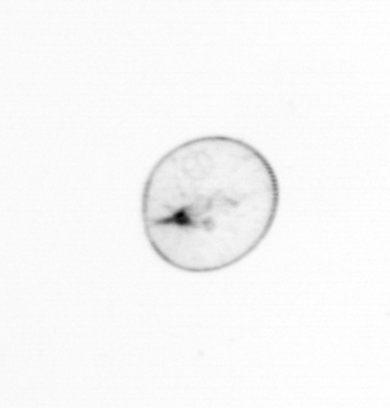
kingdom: Chromista
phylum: Myzozoa
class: Dinophyceae
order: Noctilucales
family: Noctilucaceae
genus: Noctiluca
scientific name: Noctiluca scintillans
